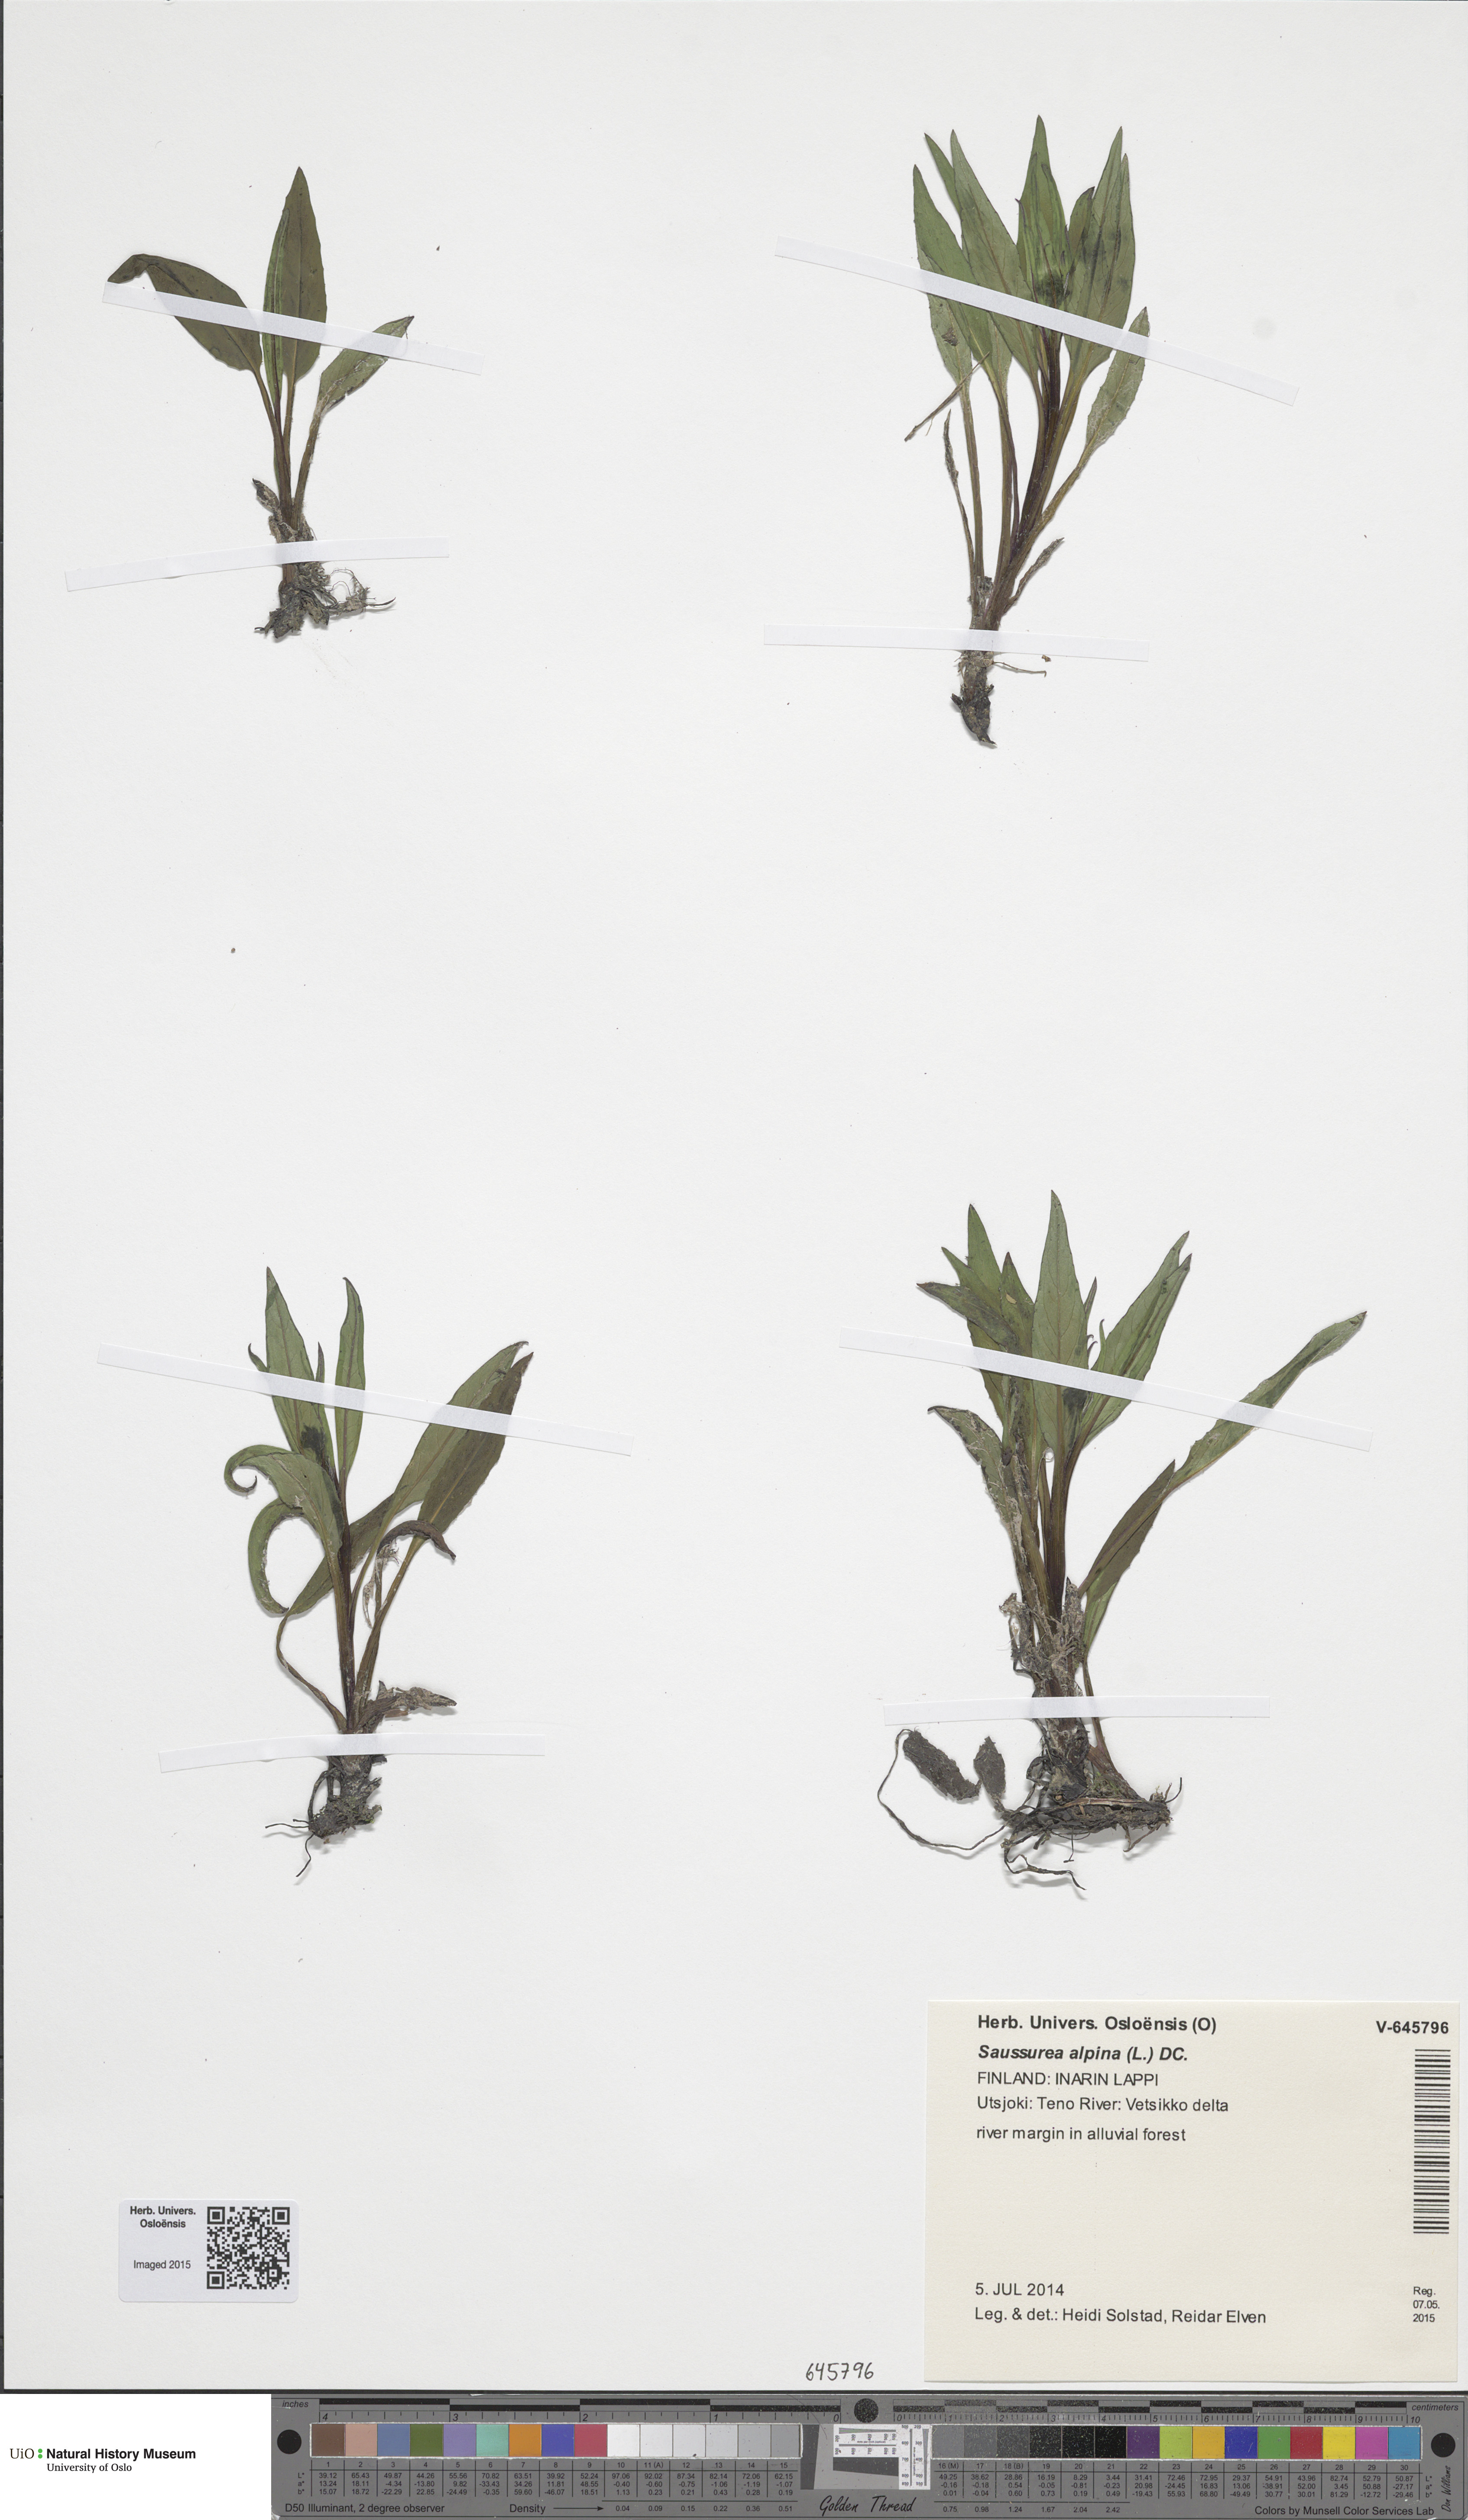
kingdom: Plantae
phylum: Tracheophyta
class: Magnoliopsida
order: Asterales
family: Asteraceae
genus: Saussurea
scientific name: Saussurea alpina
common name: Alpine saw-wort
